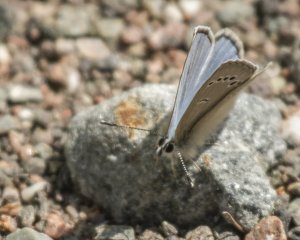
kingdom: Animalia
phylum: Arthropoda
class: Insecta
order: Lepidoptera
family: Lycaenidae
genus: Glaucopsyche
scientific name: Glaucopsyche lygdamus
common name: Silvery Blue
